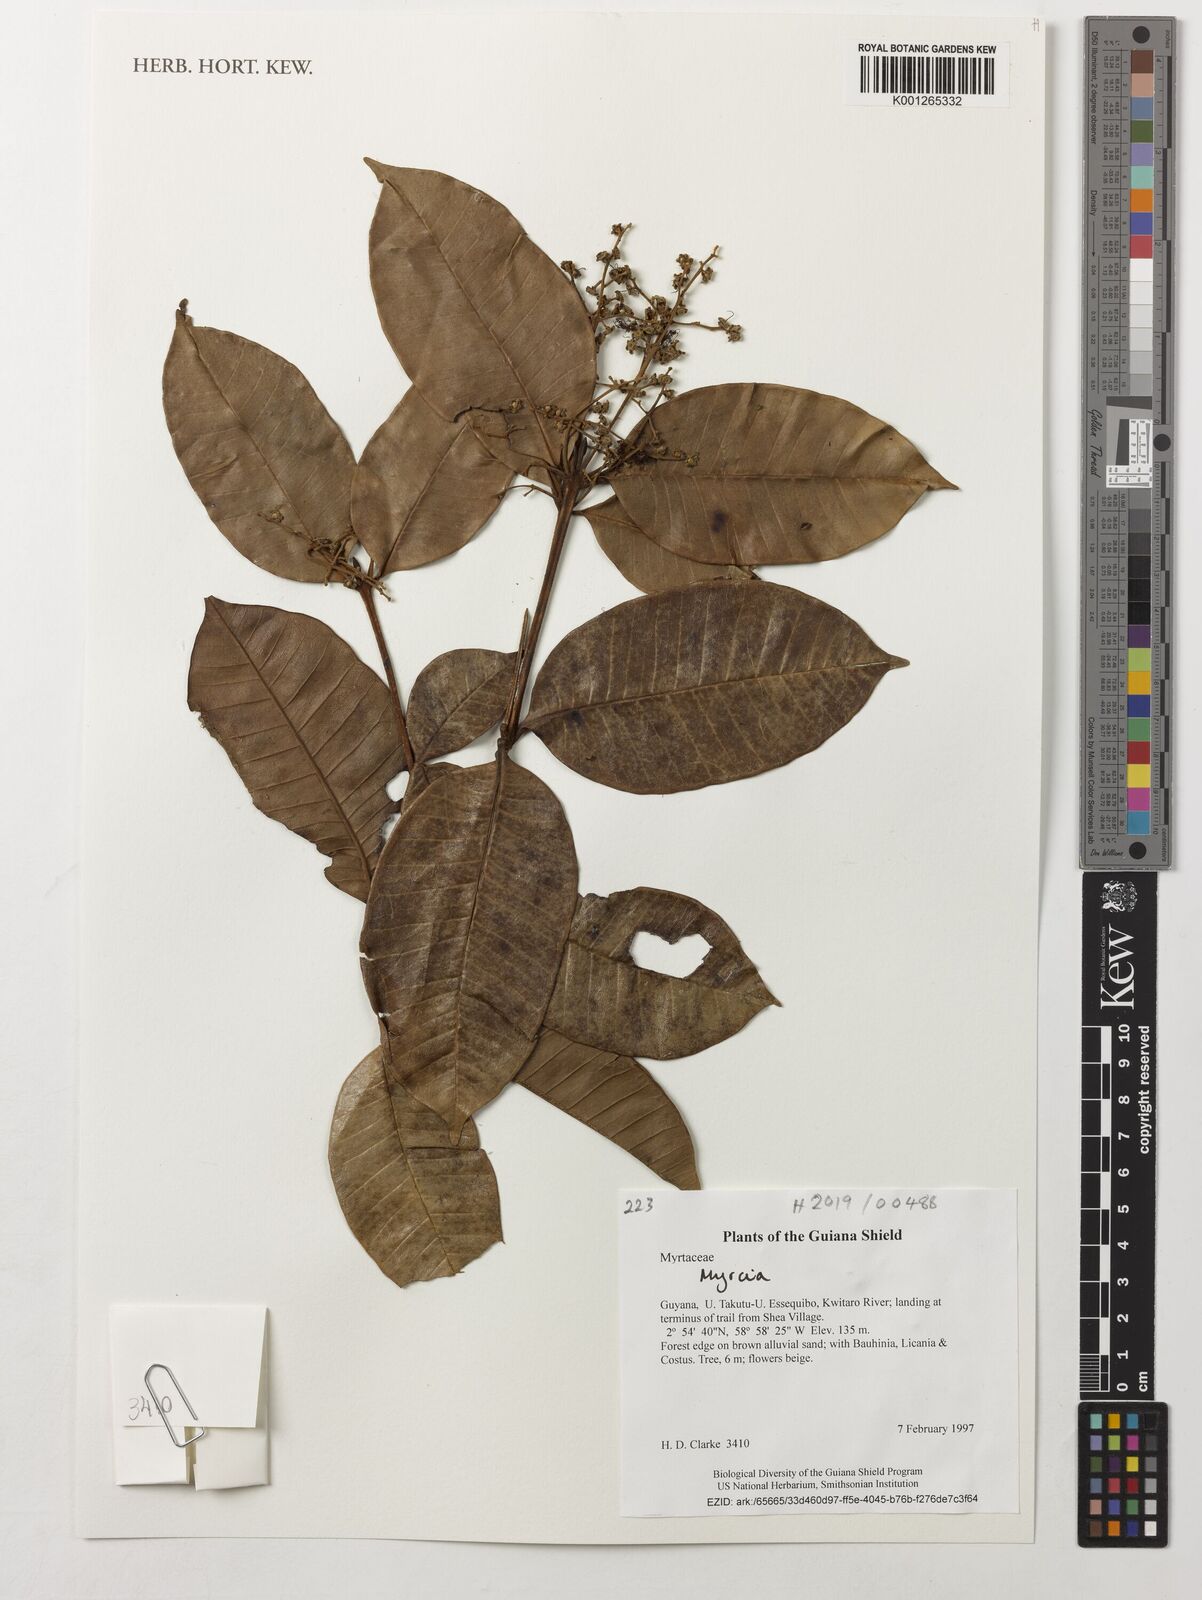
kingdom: Plantae
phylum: Tracheophyta
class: Magnoliopsida
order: Myrtales
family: Myrtaceae
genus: Myrcia
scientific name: Myrcia
